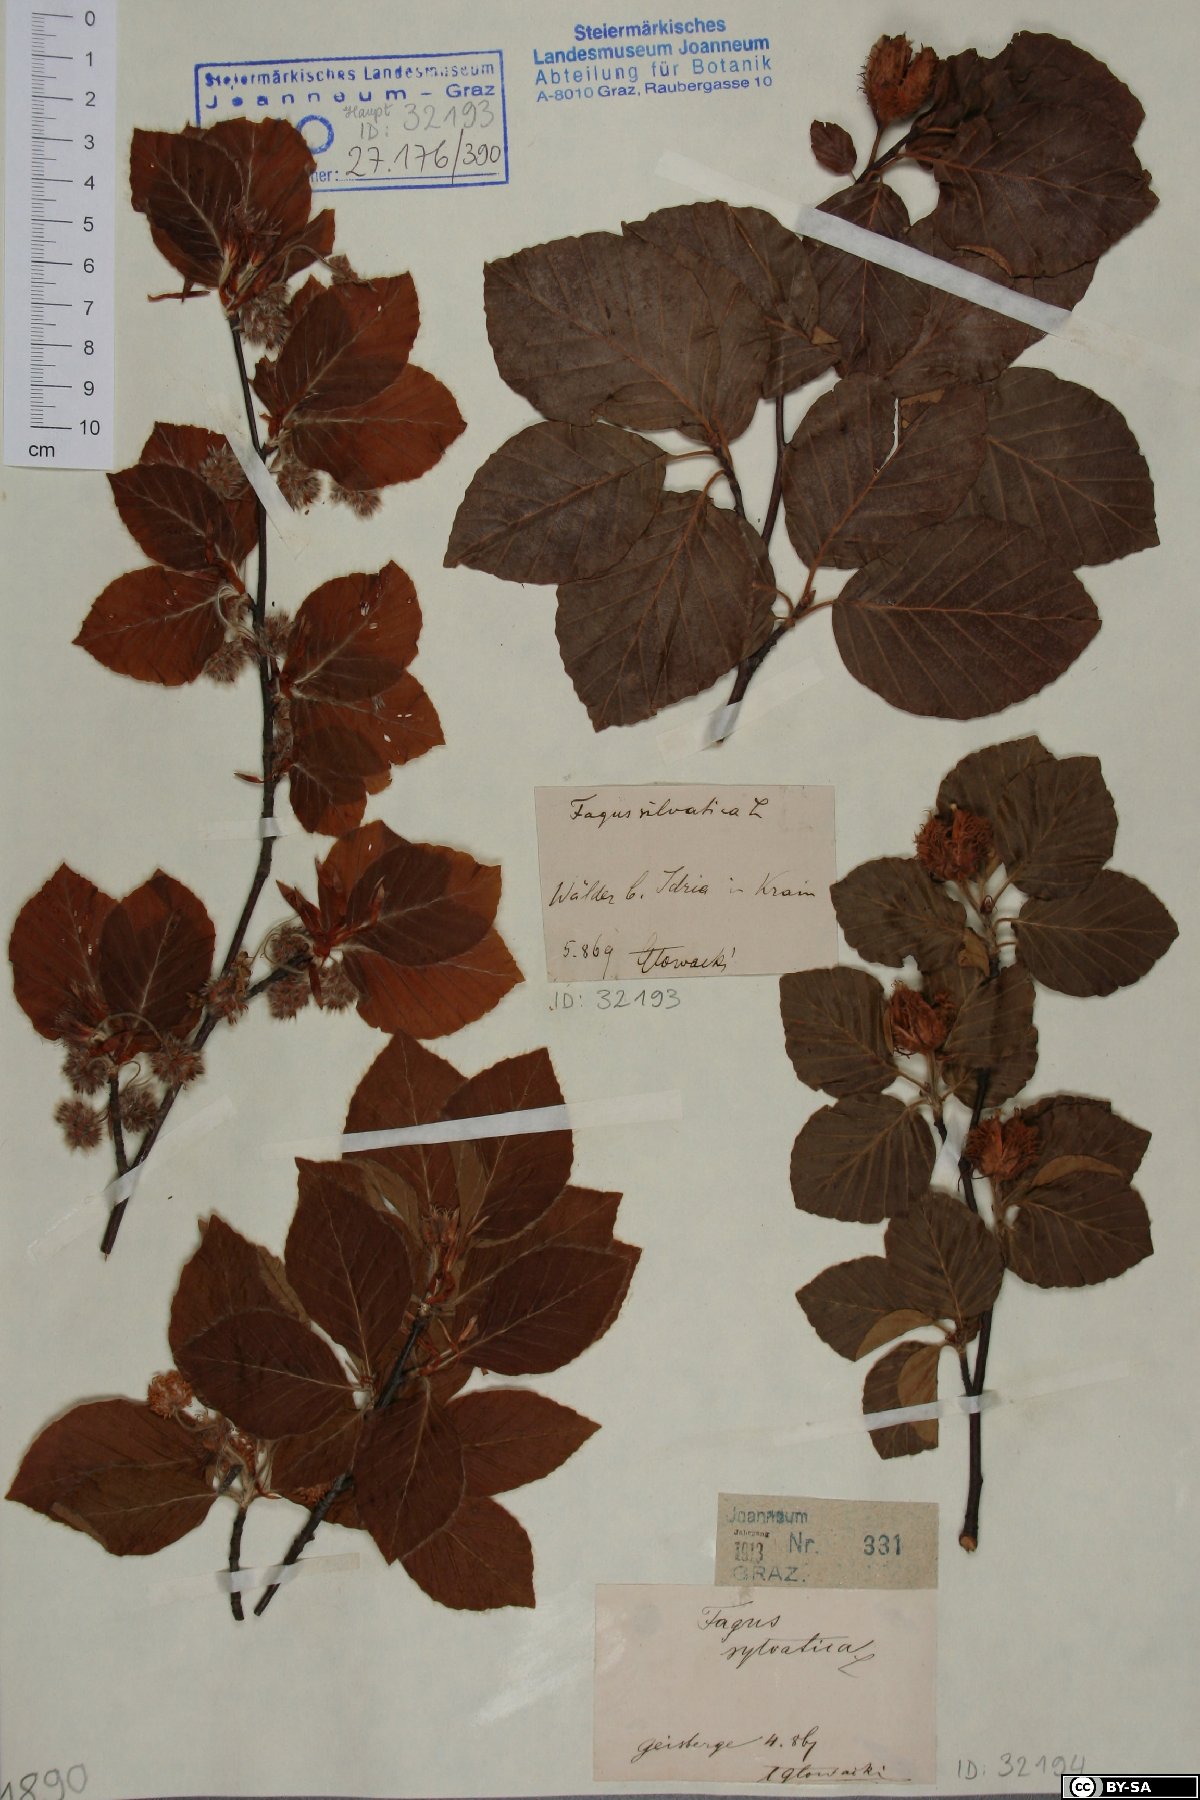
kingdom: Plantae
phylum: Tracheophyta
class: Magnoliopsida
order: Fagales
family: Fagaceae
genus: Fagus
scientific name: Fagus sylvatica
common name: Beech
